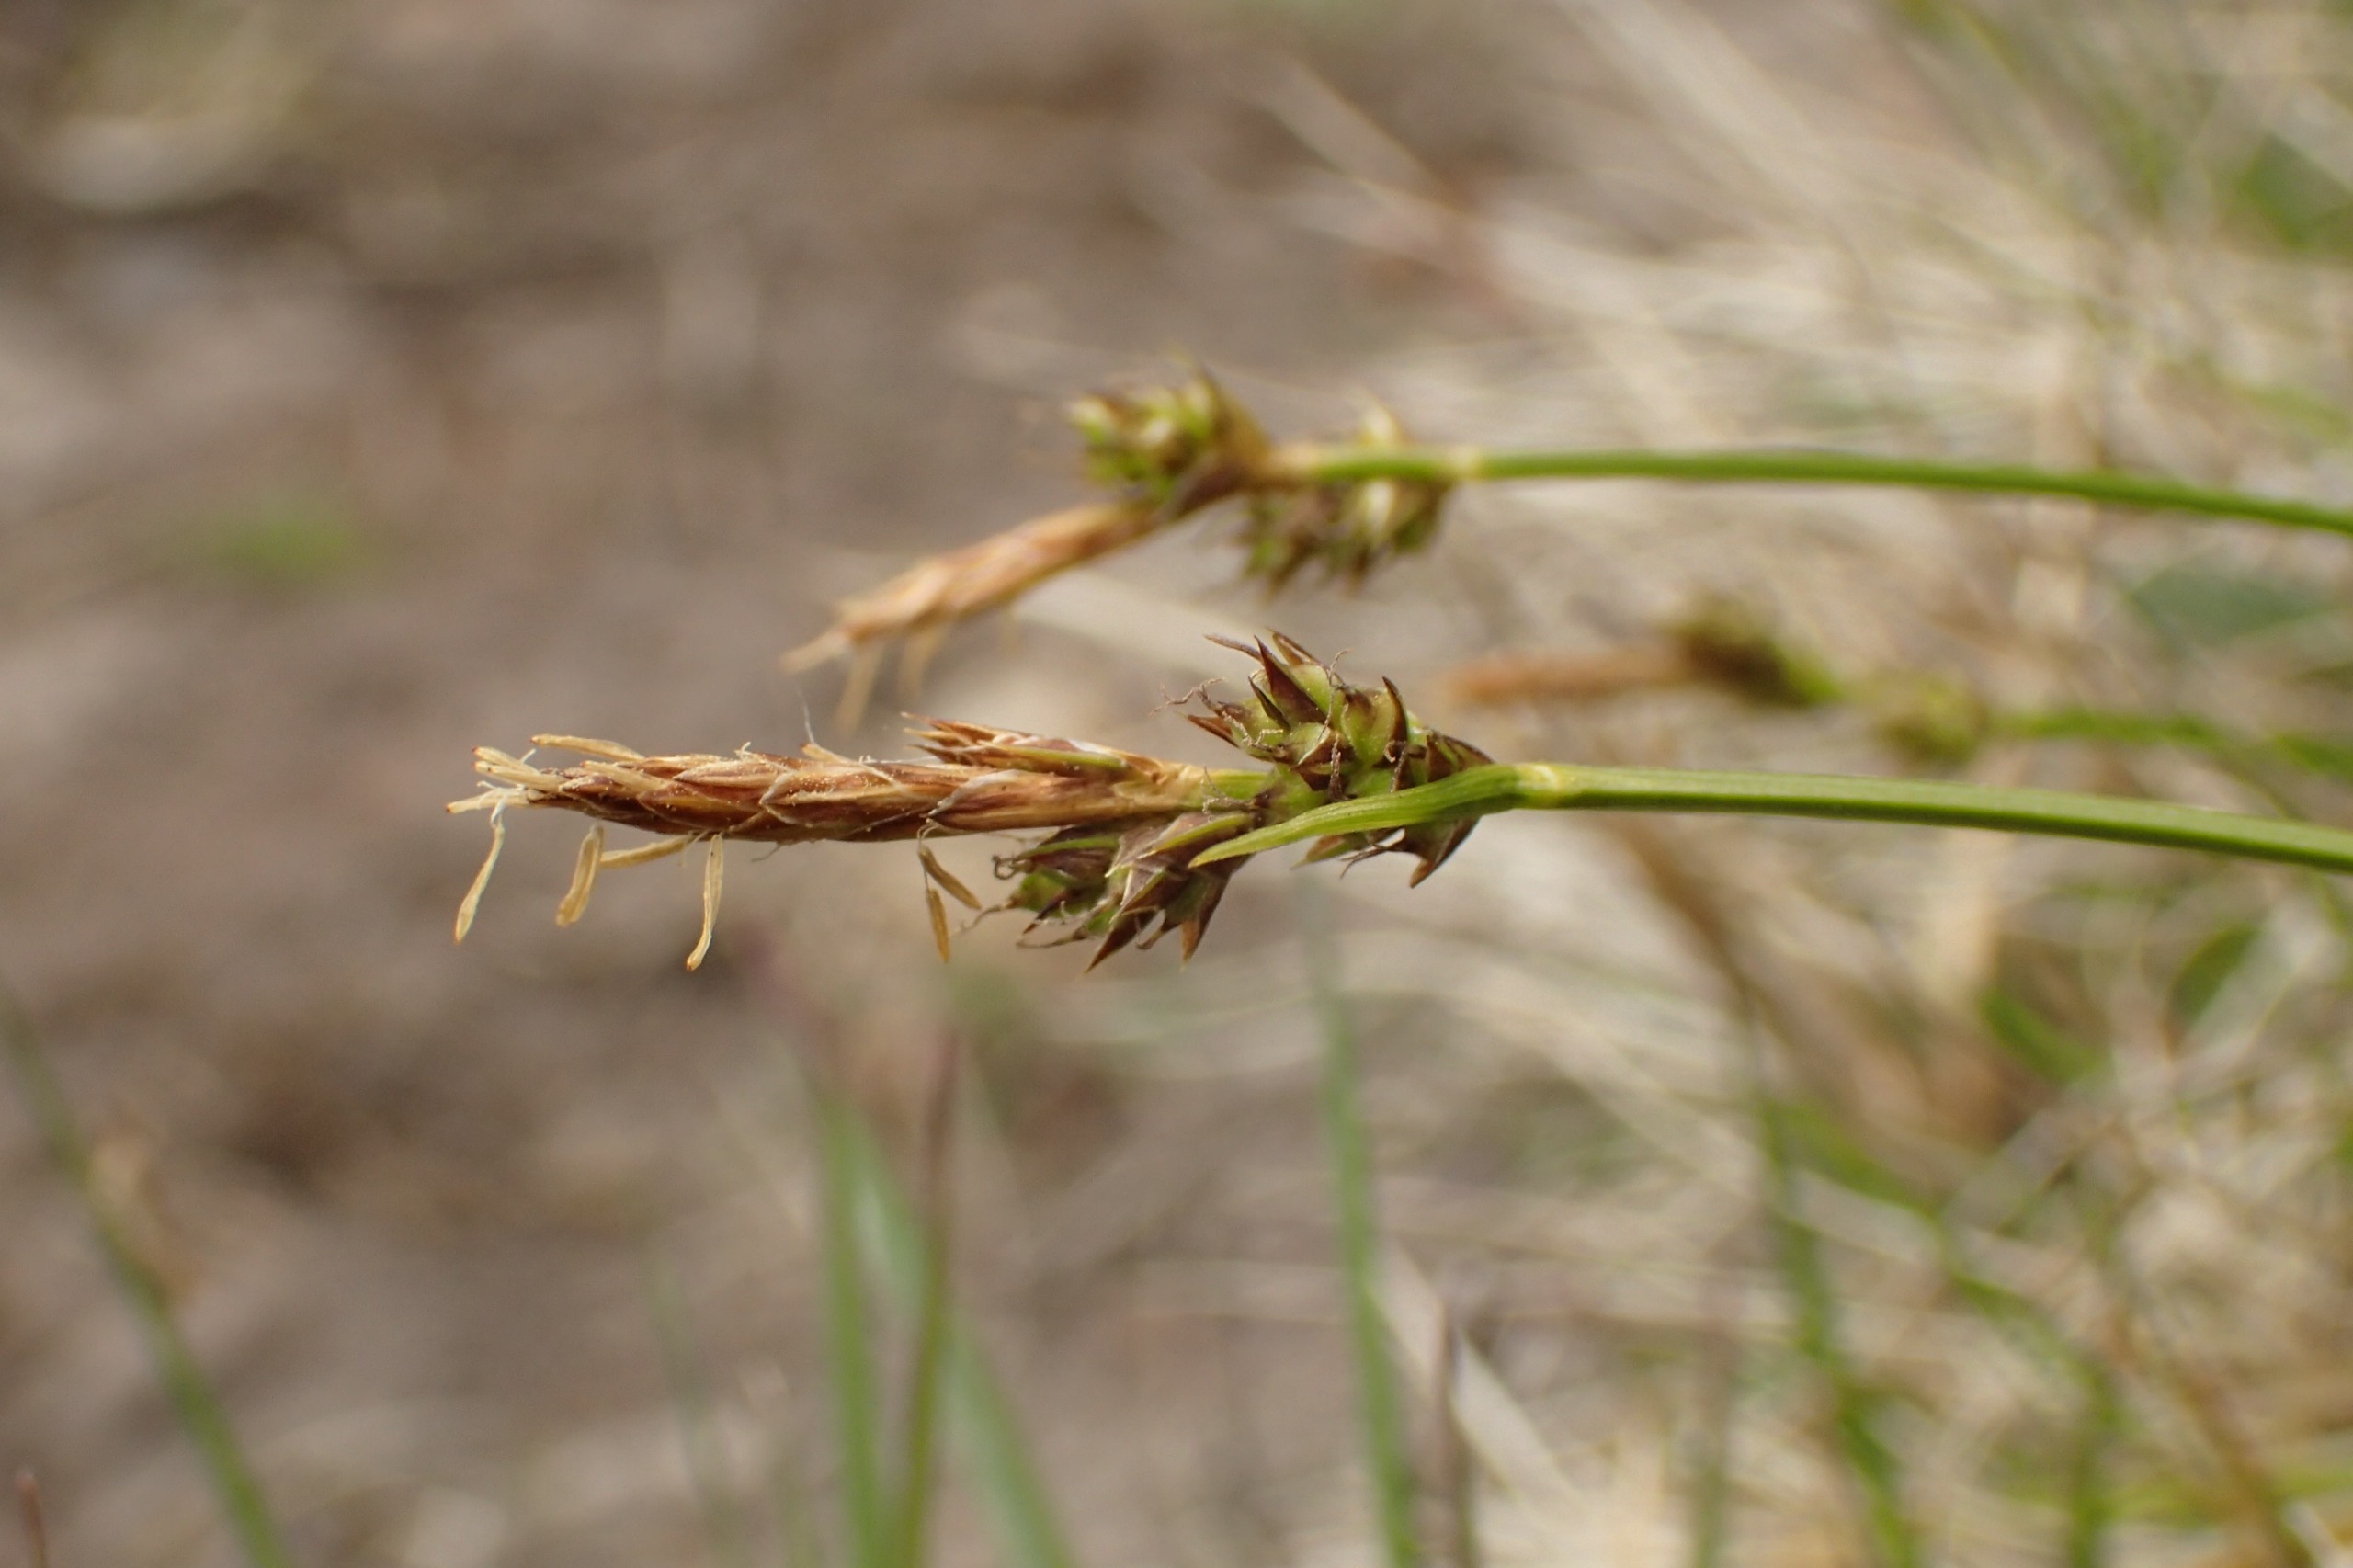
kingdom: Plantae
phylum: Tracheophyta
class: Liliopsida
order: Poales
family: Cyperaceae
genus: Carex
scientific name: Carex pilulifera
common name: Pille-star
